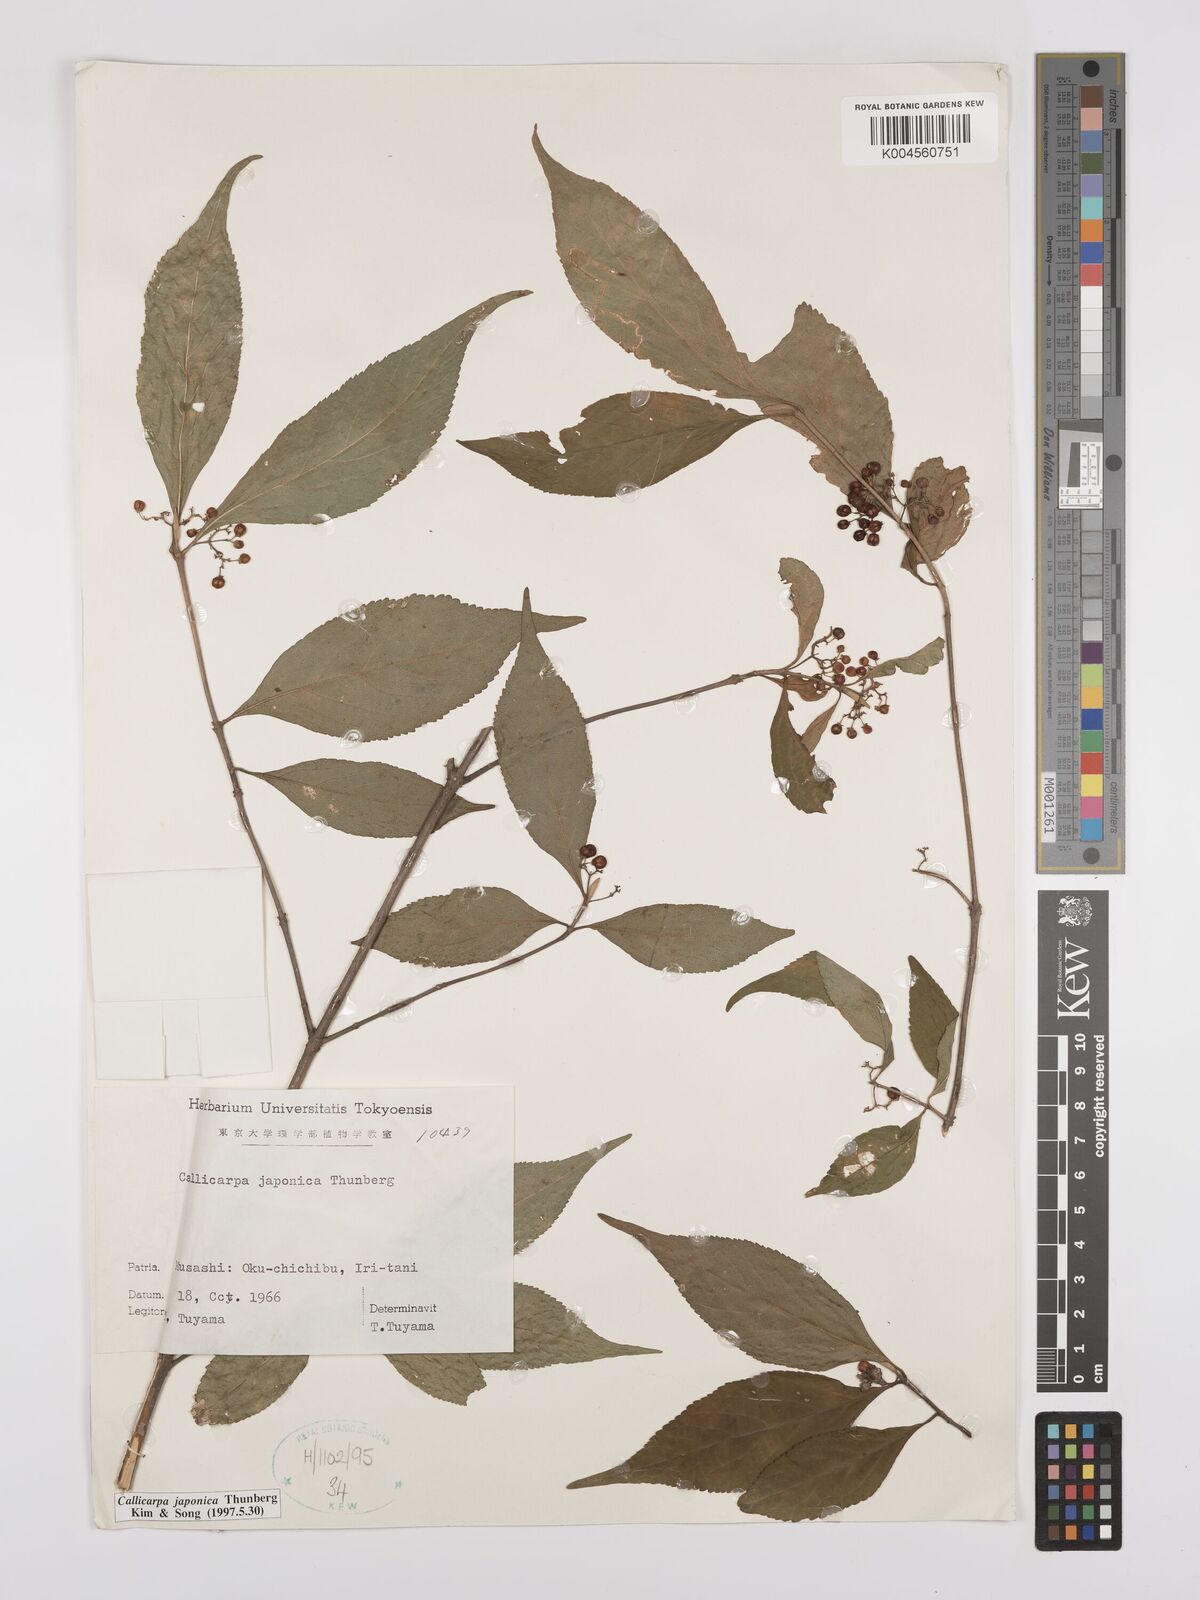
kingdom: Plantae
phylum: Tracheophyta
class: Magnoliopsida
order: Lamiales
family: Lamiaceae
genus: Callicarpa
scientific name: Callicarpa japonica
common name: Japanese beauty-berry
